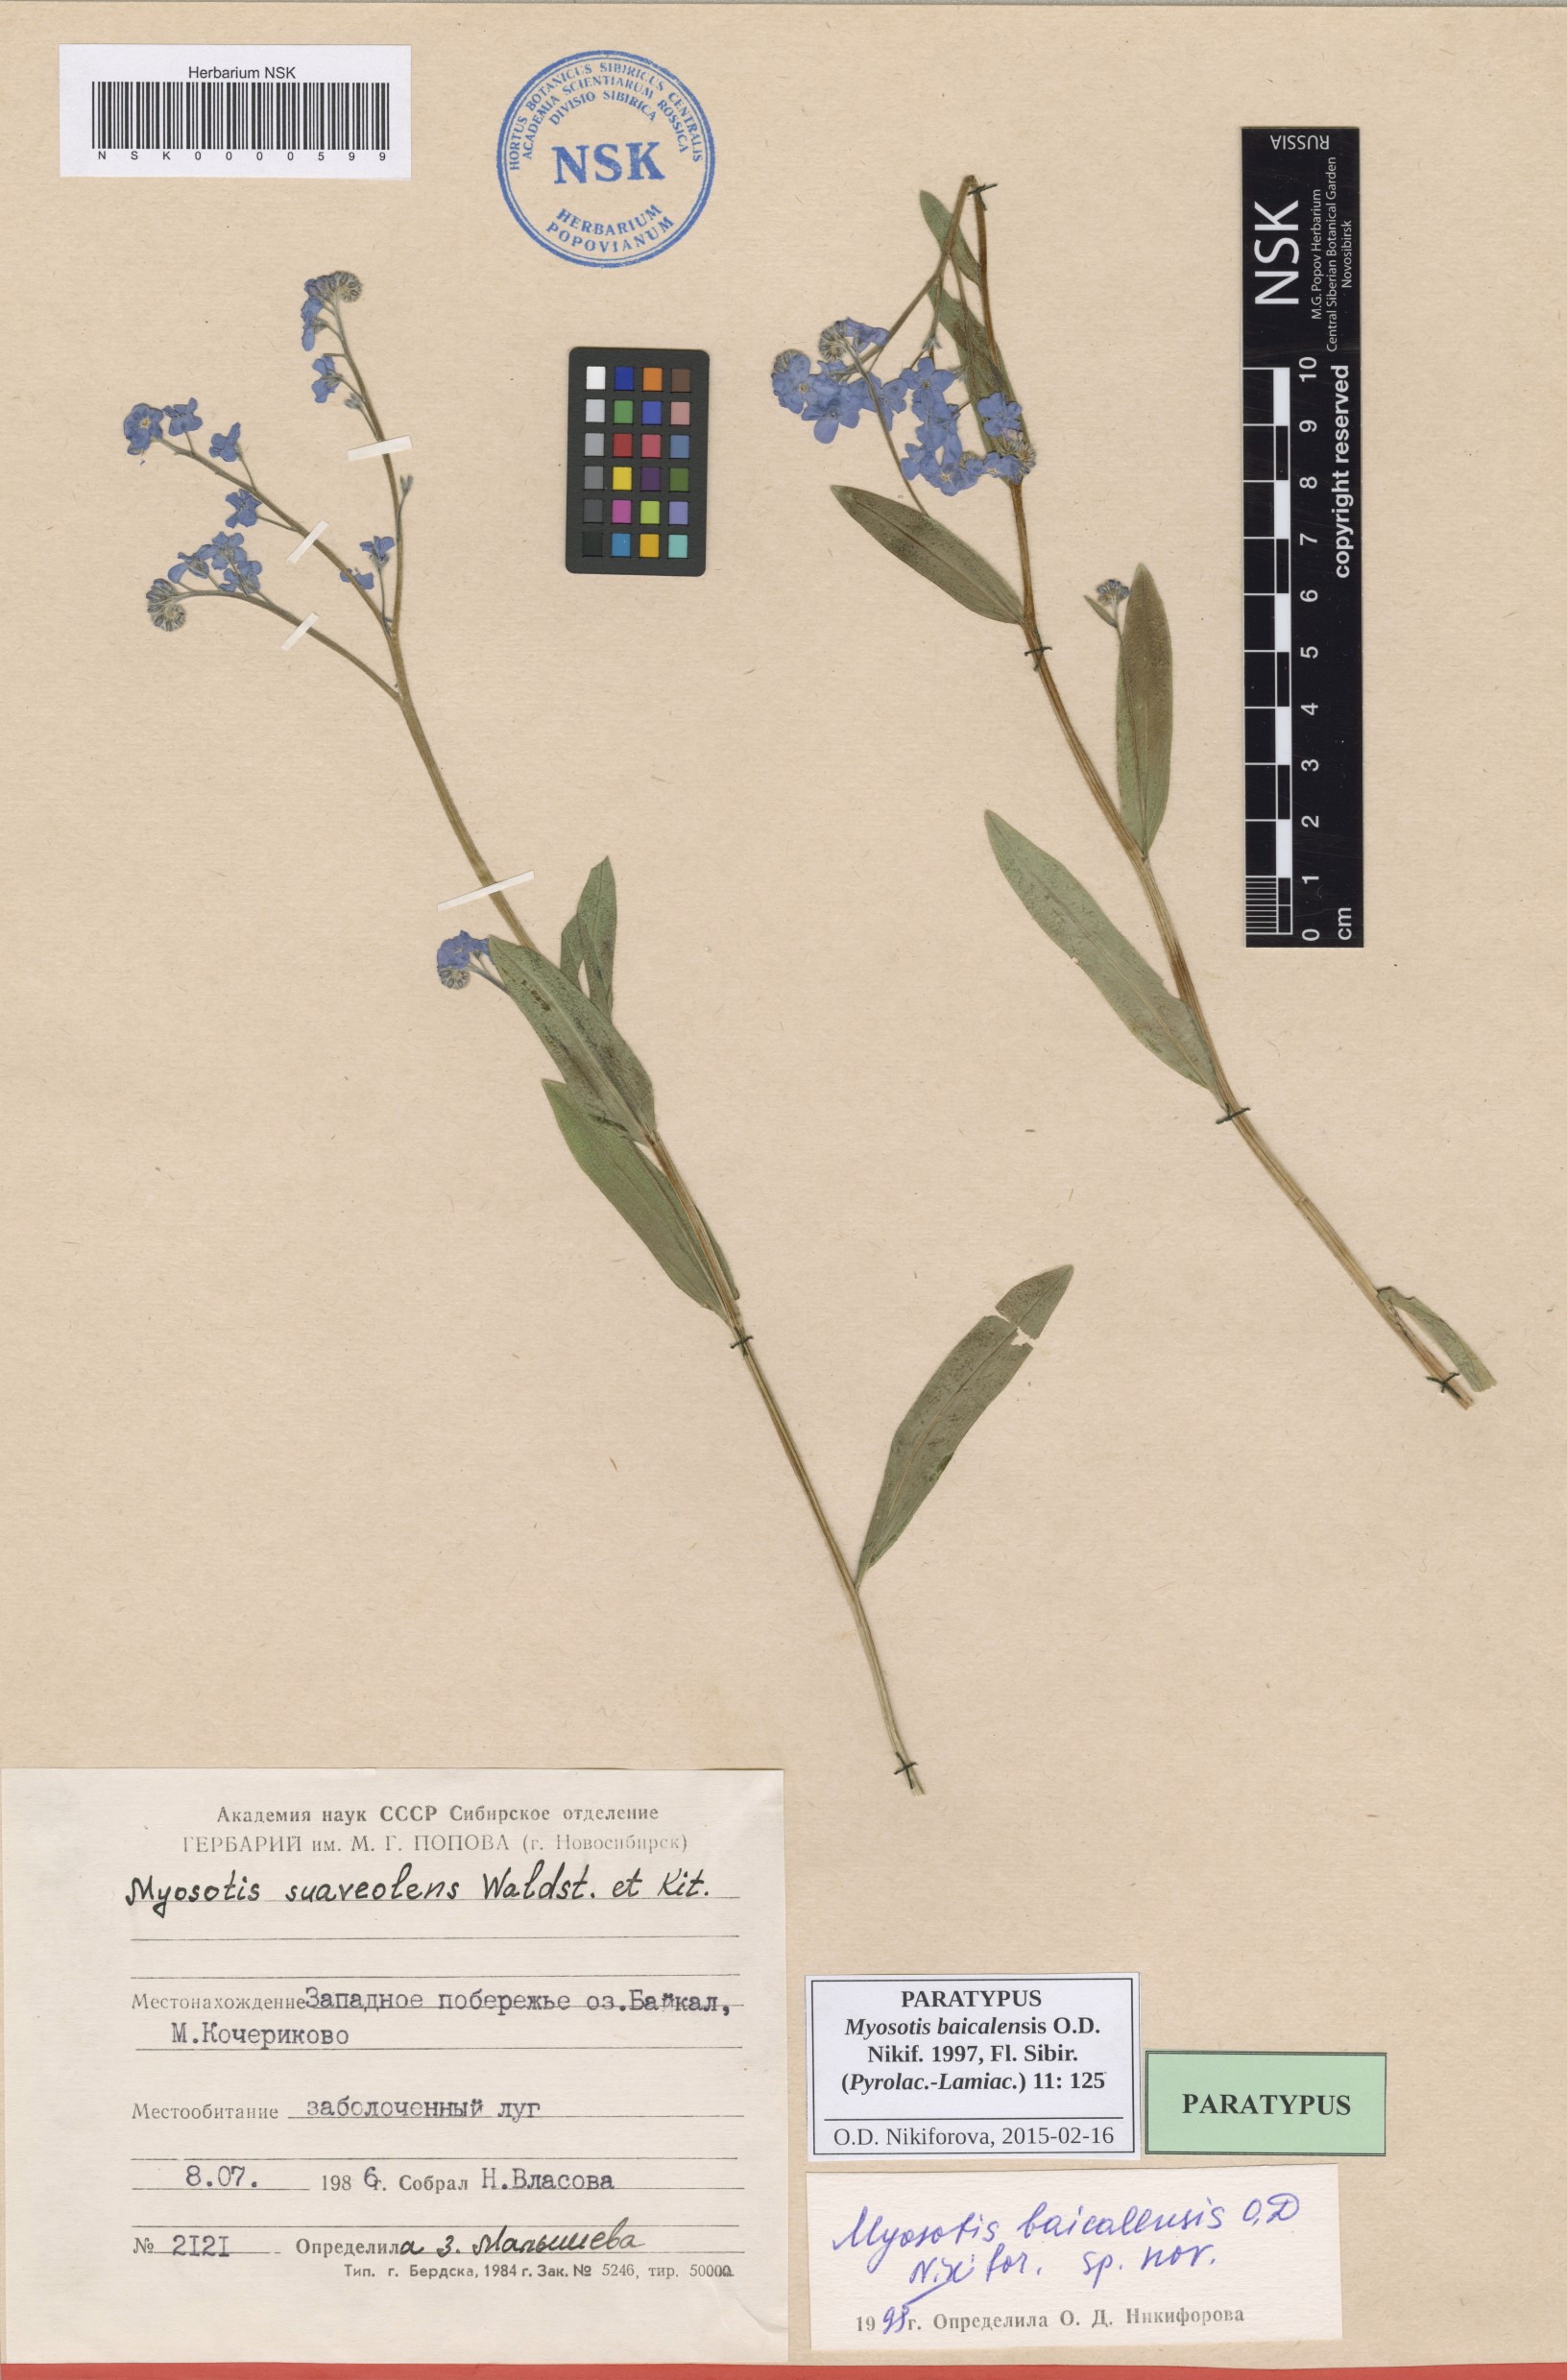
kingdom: Plantae
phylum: Tracheophyta
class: Magnoliopsida
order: Boraginales
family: Boraginaceae
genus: Myosotis
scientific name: Myosotis baicalensis
